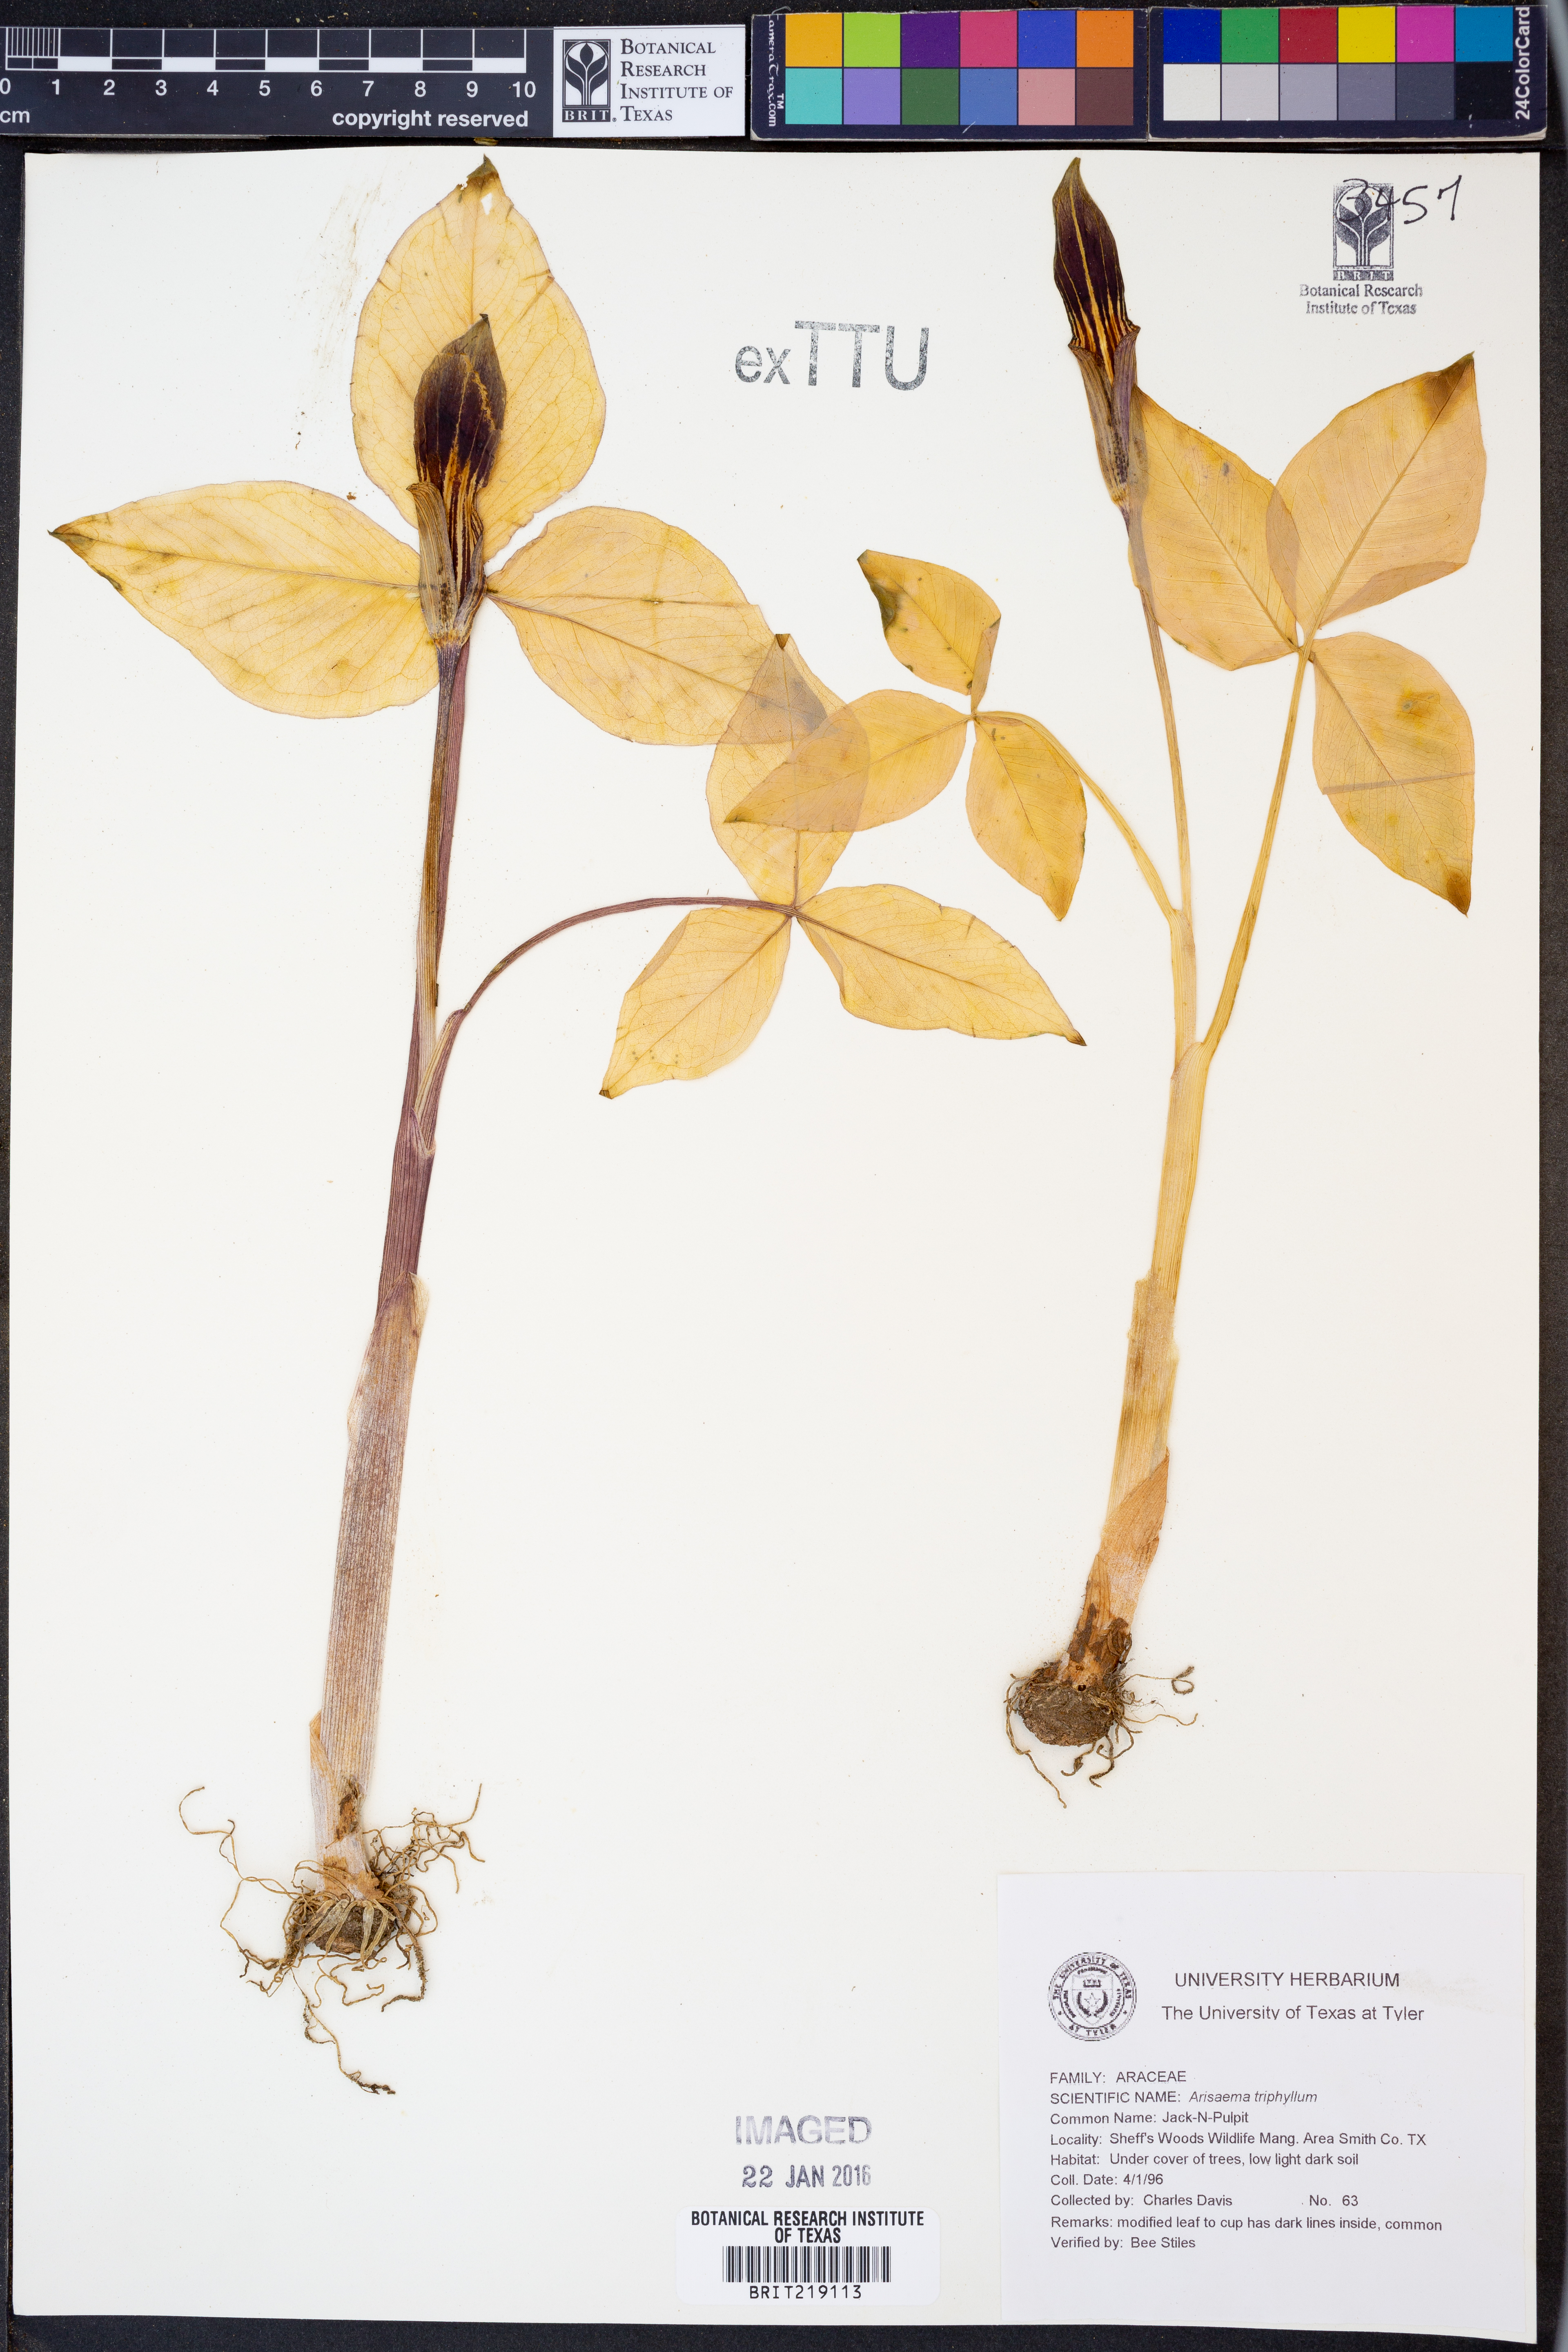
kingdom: Plantae
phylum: Tracheophyta
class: Liliopsida
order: Alismatales
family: Araceae
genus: Arisaema
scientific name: Arisaema triphyllum
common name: Jack-in-the-pulpit
